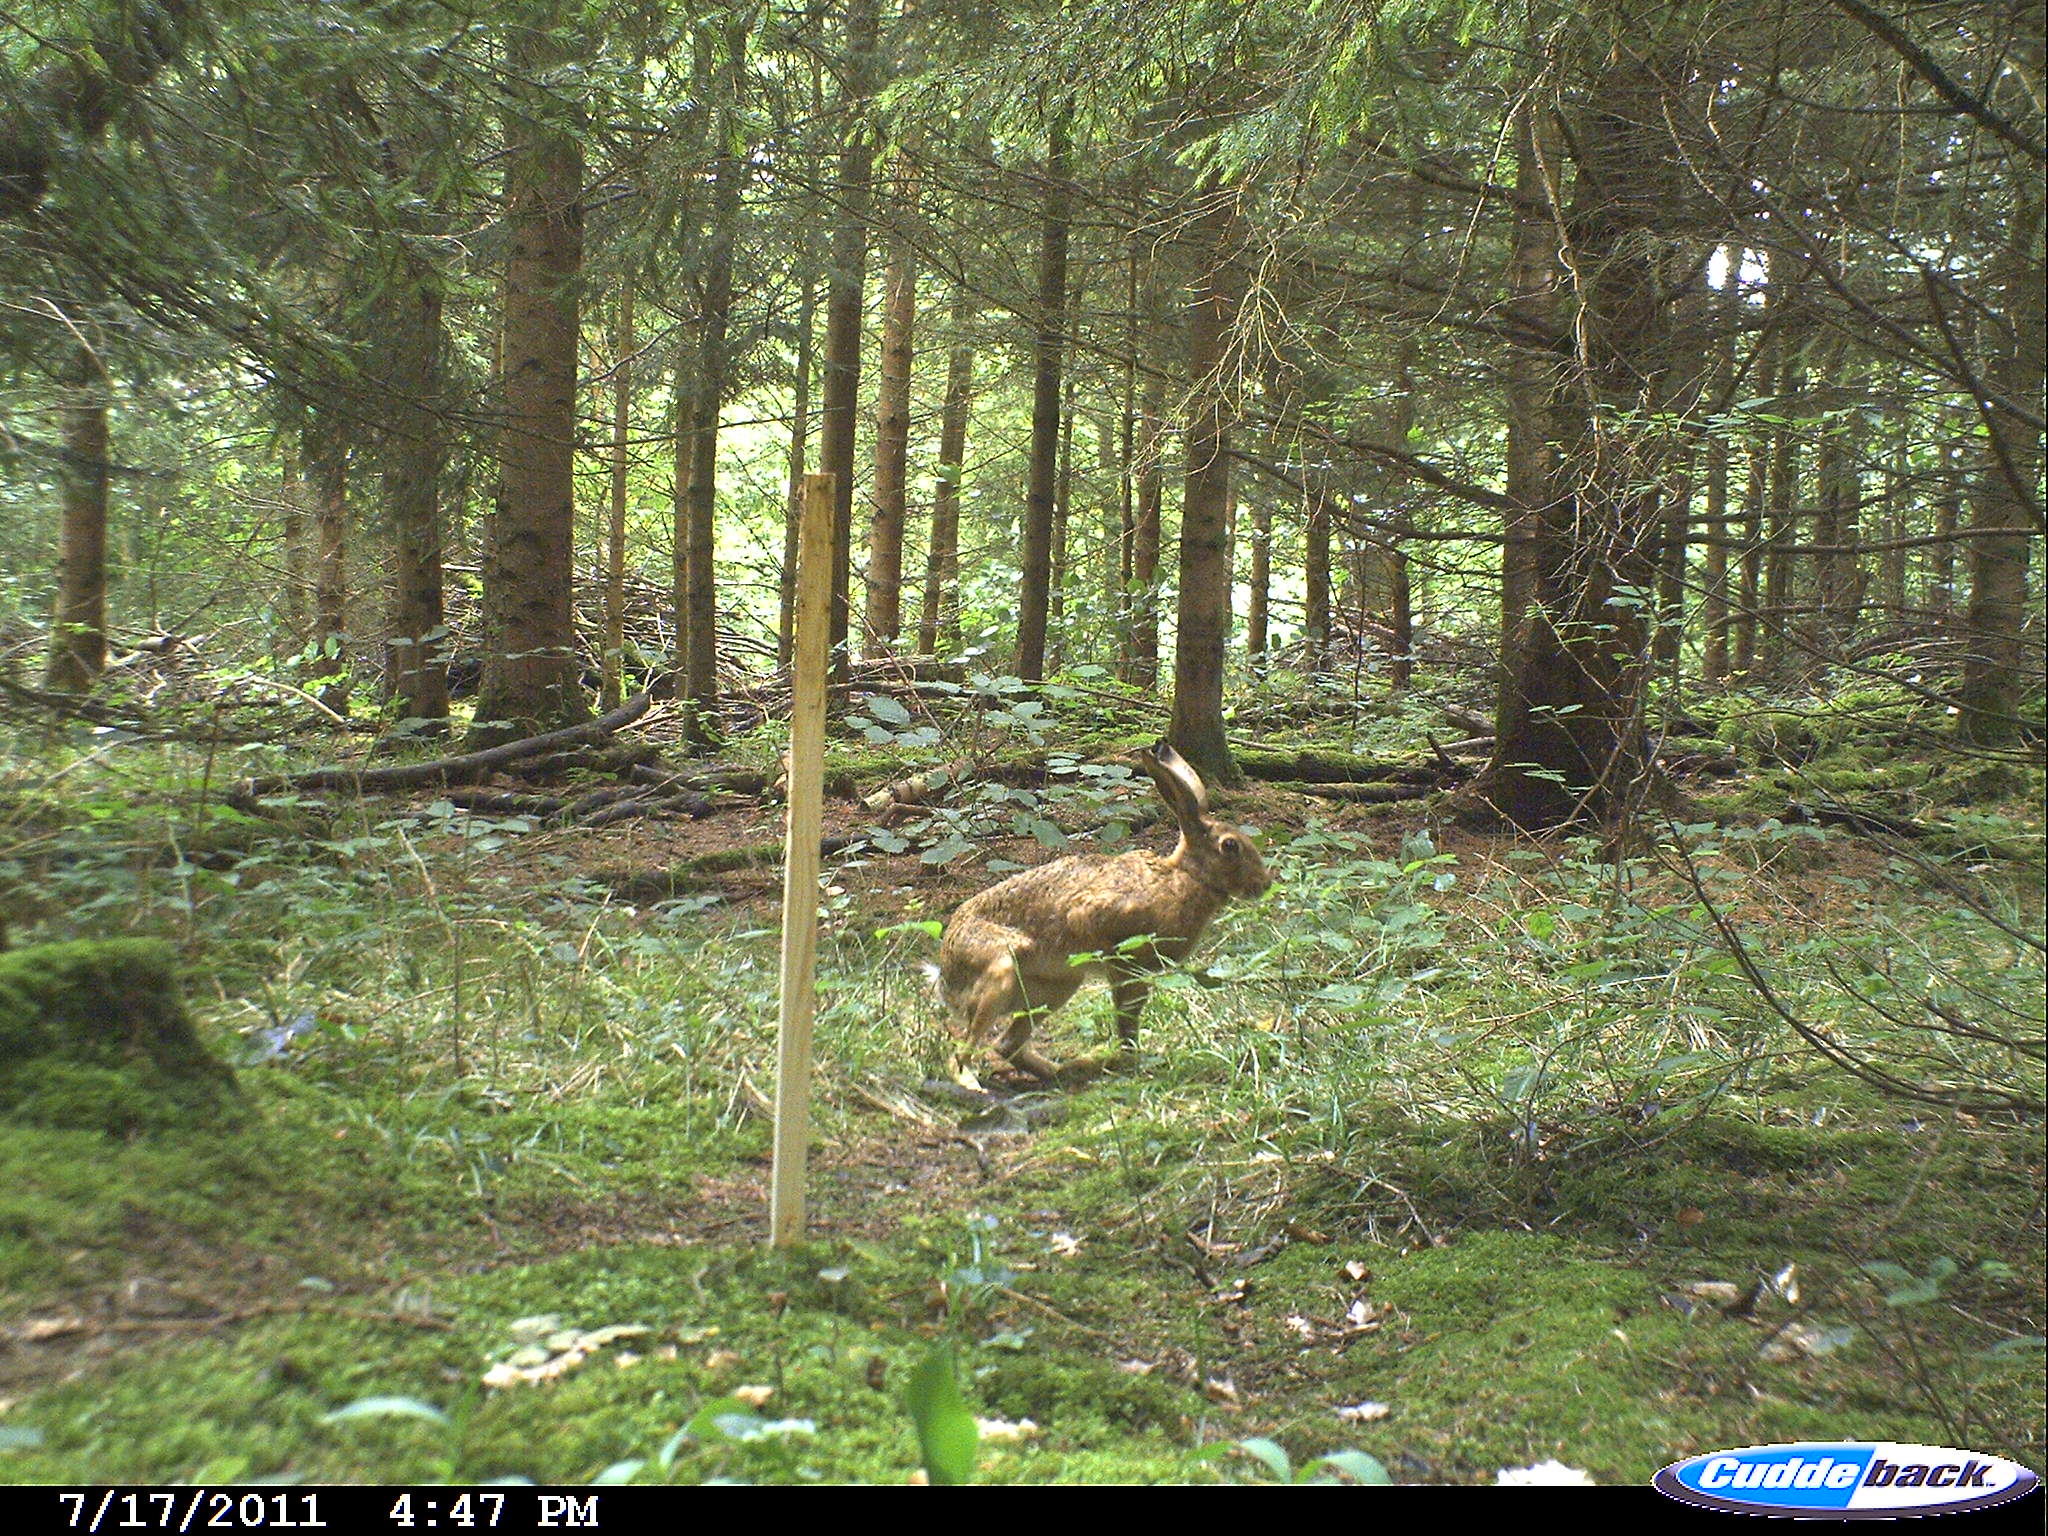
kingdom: Animalia
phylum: Chordata
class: Mammalia
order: Lagomorpha
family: Leporidae
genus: Lepus
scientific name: Lepus europaeus
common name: European hare
